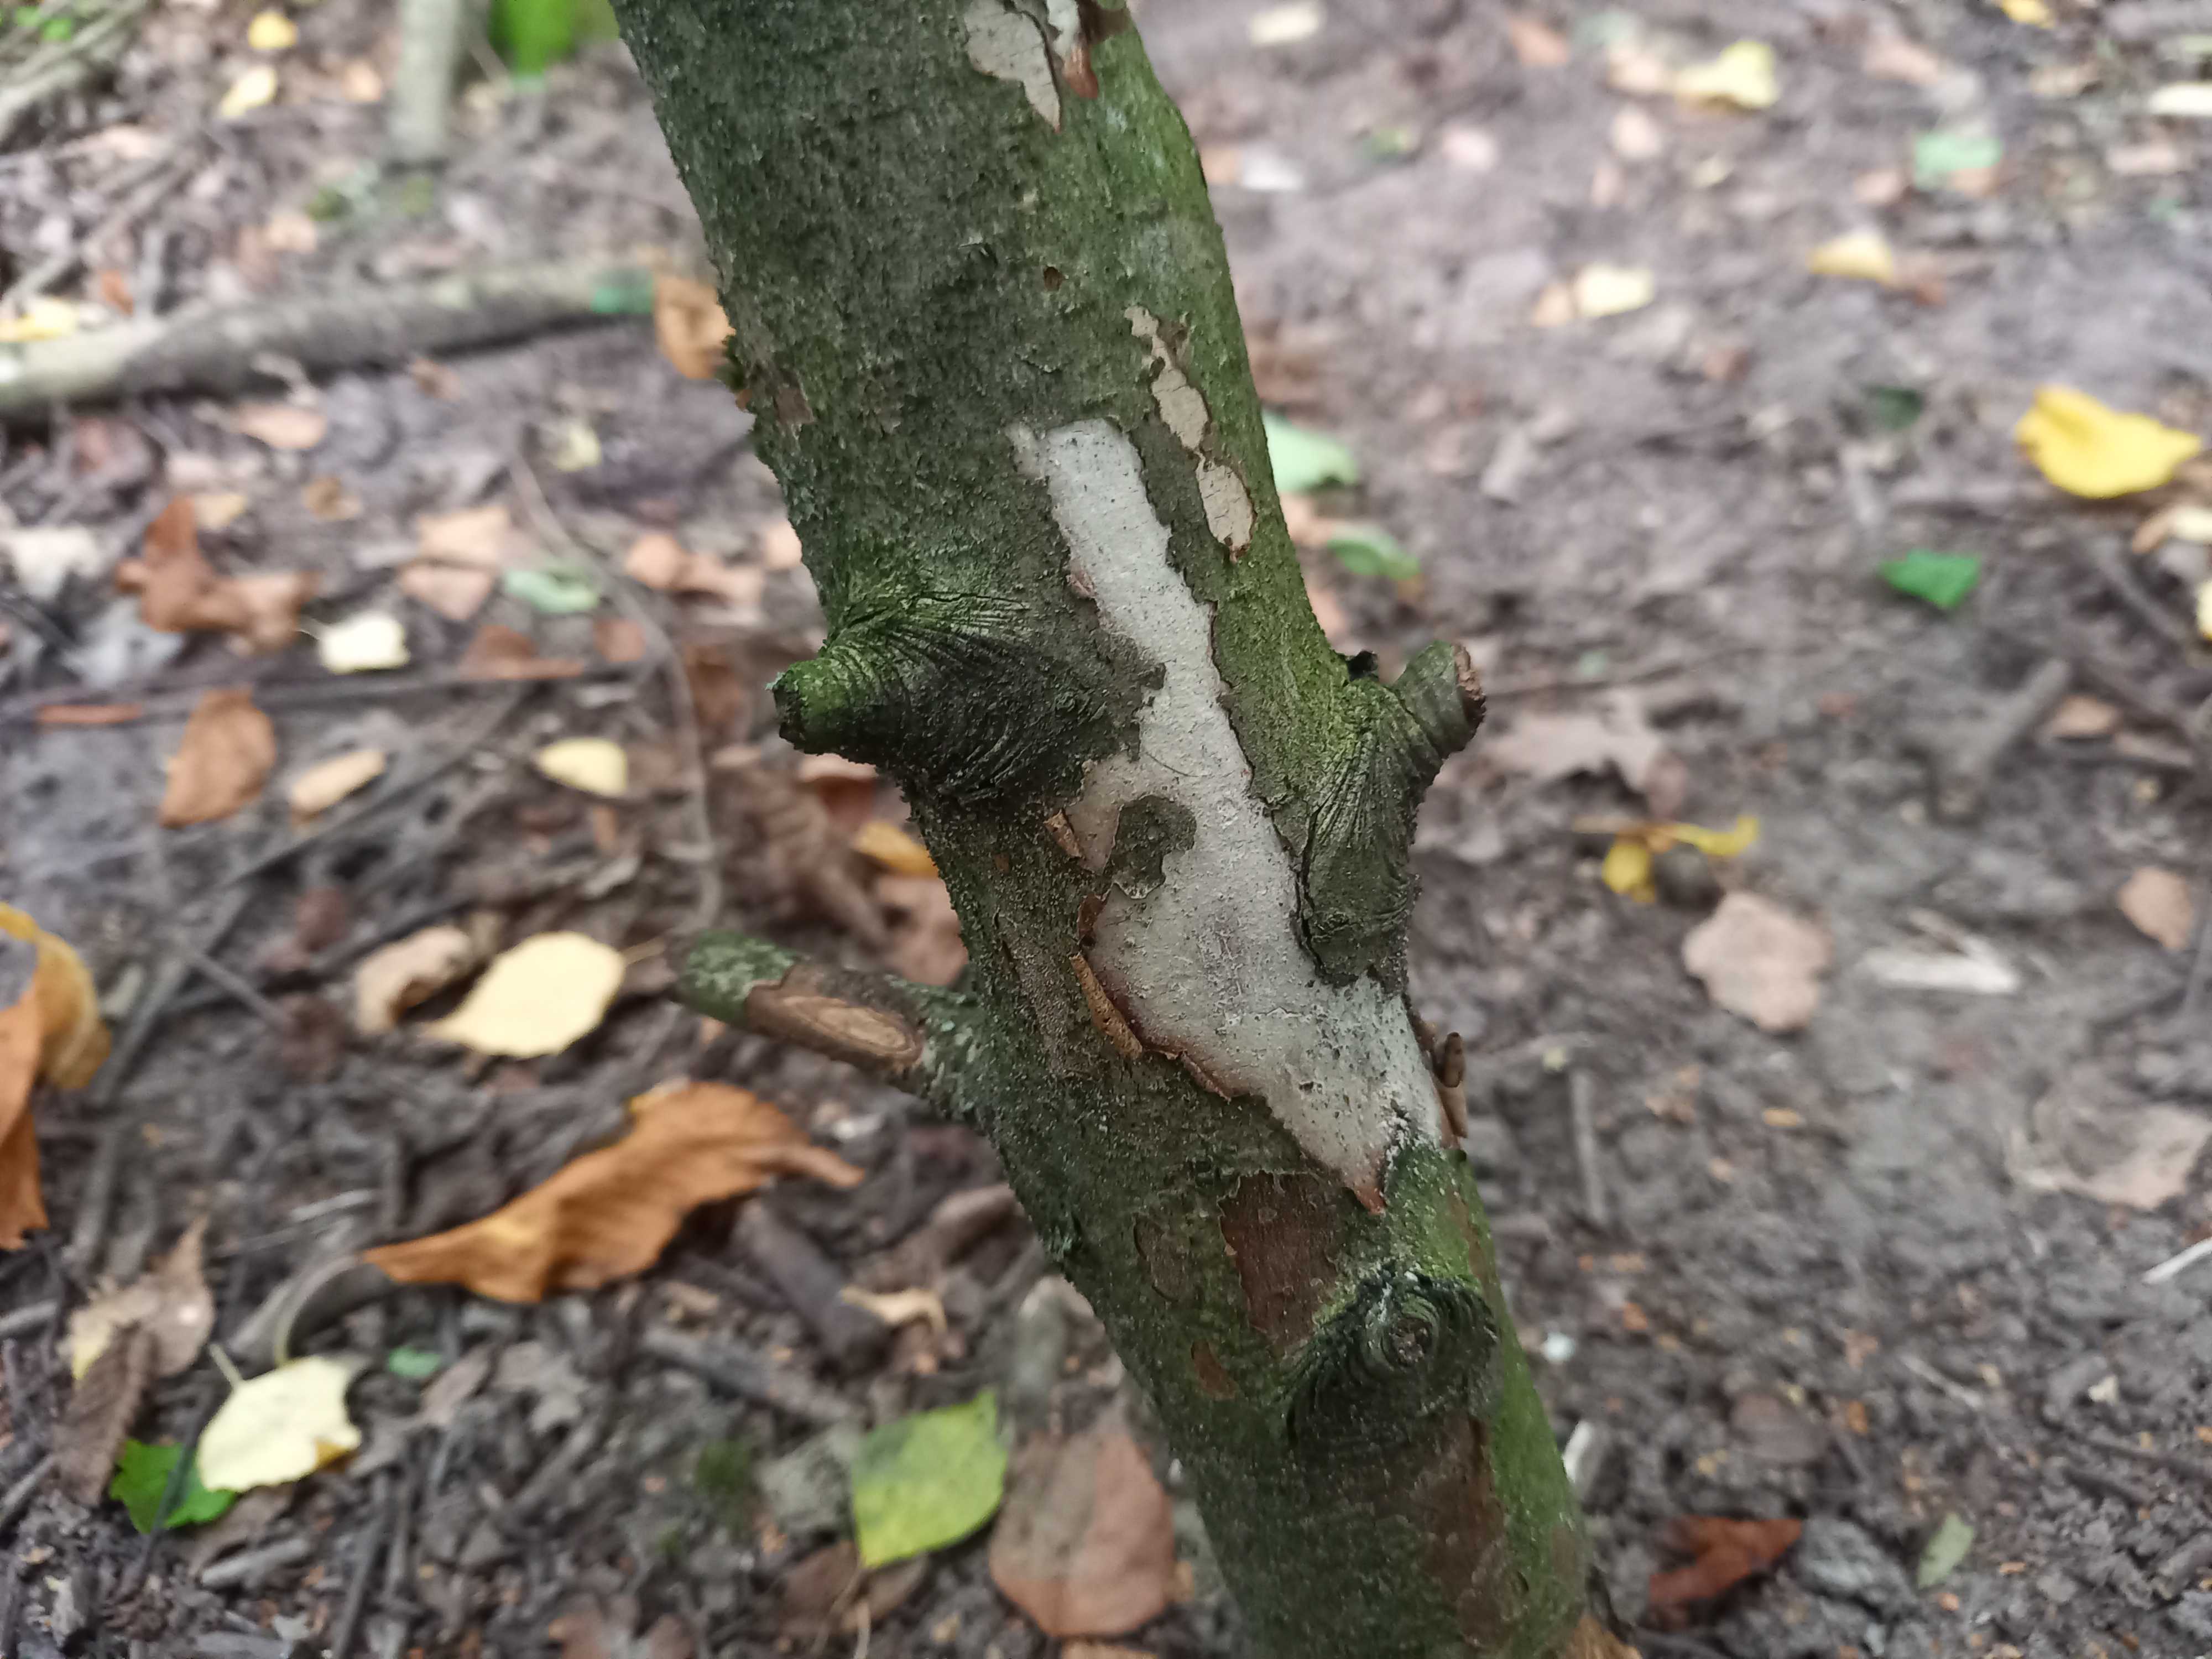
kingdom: Fungi
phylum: Basidiomycota
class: Agaricomycetes
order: Corticiales
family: Vuilleminiaceae
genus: Vuilleminia
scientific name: Vuilleminia cystidiata
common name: tjørne-barksprænger
